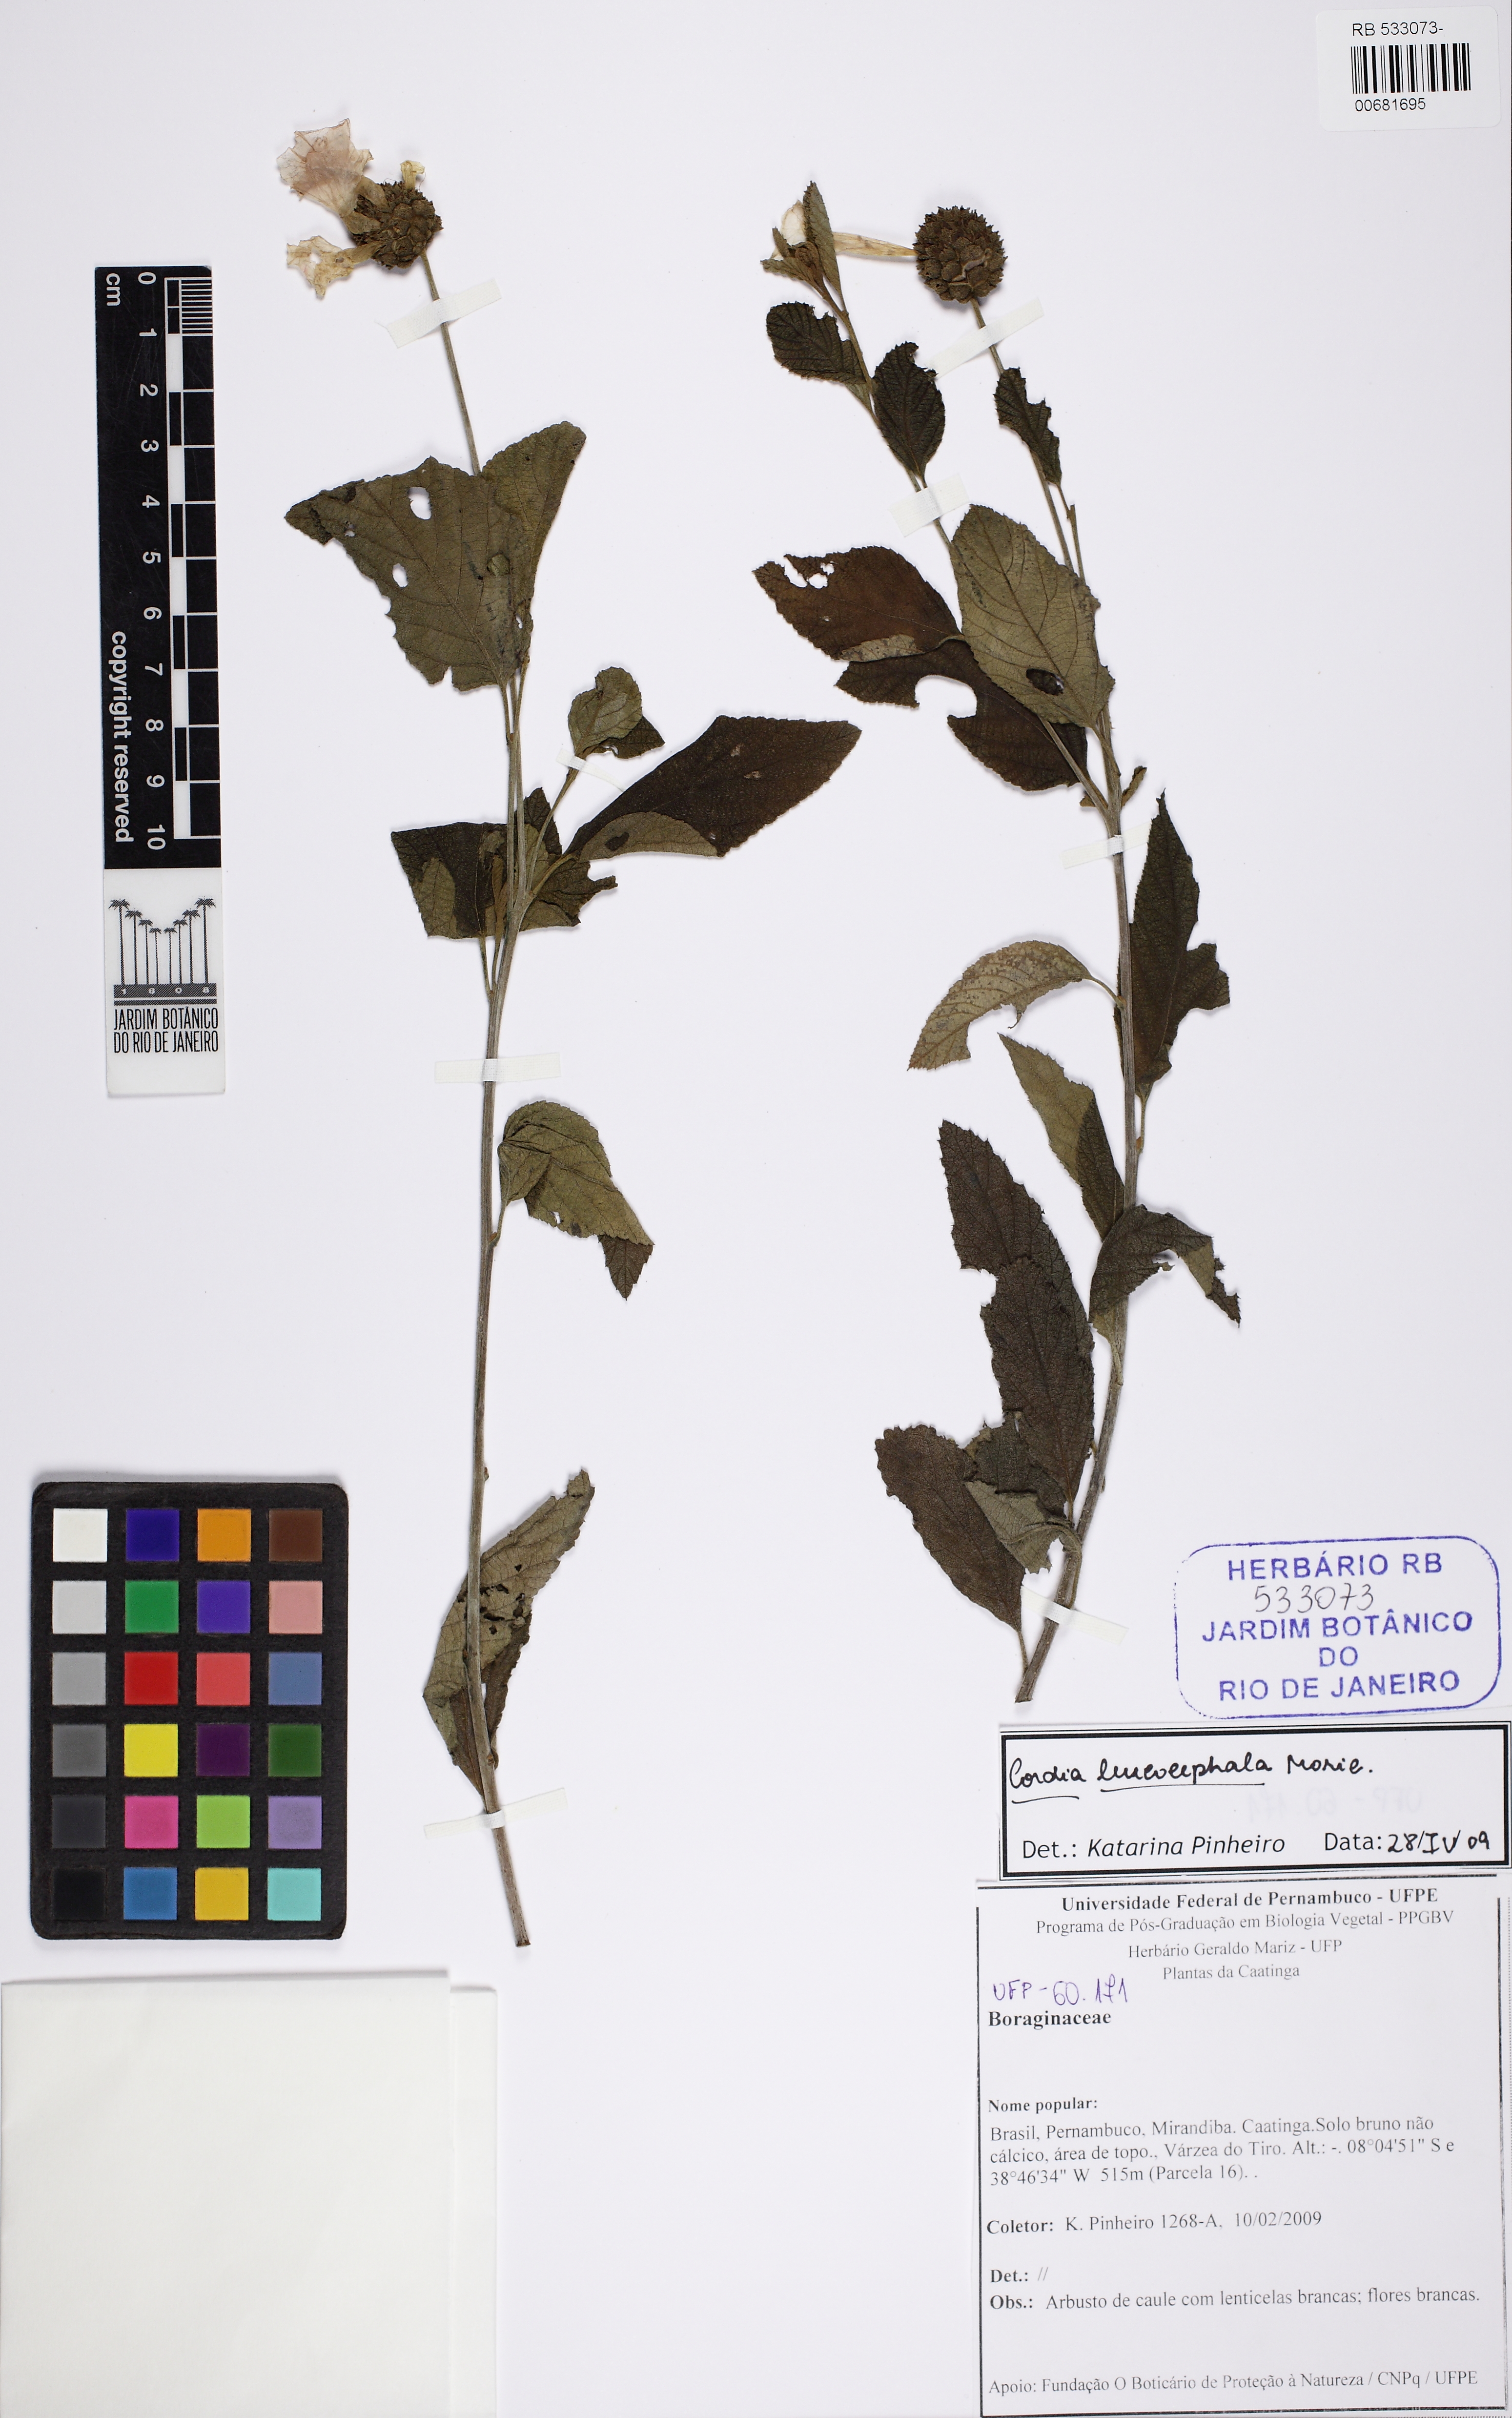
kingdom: Plantae
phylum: Tracheophyta
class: Magnoliopsida
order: Boraginales
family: Cordiaceae
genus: Varronia
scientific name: Varronia leucocephala
